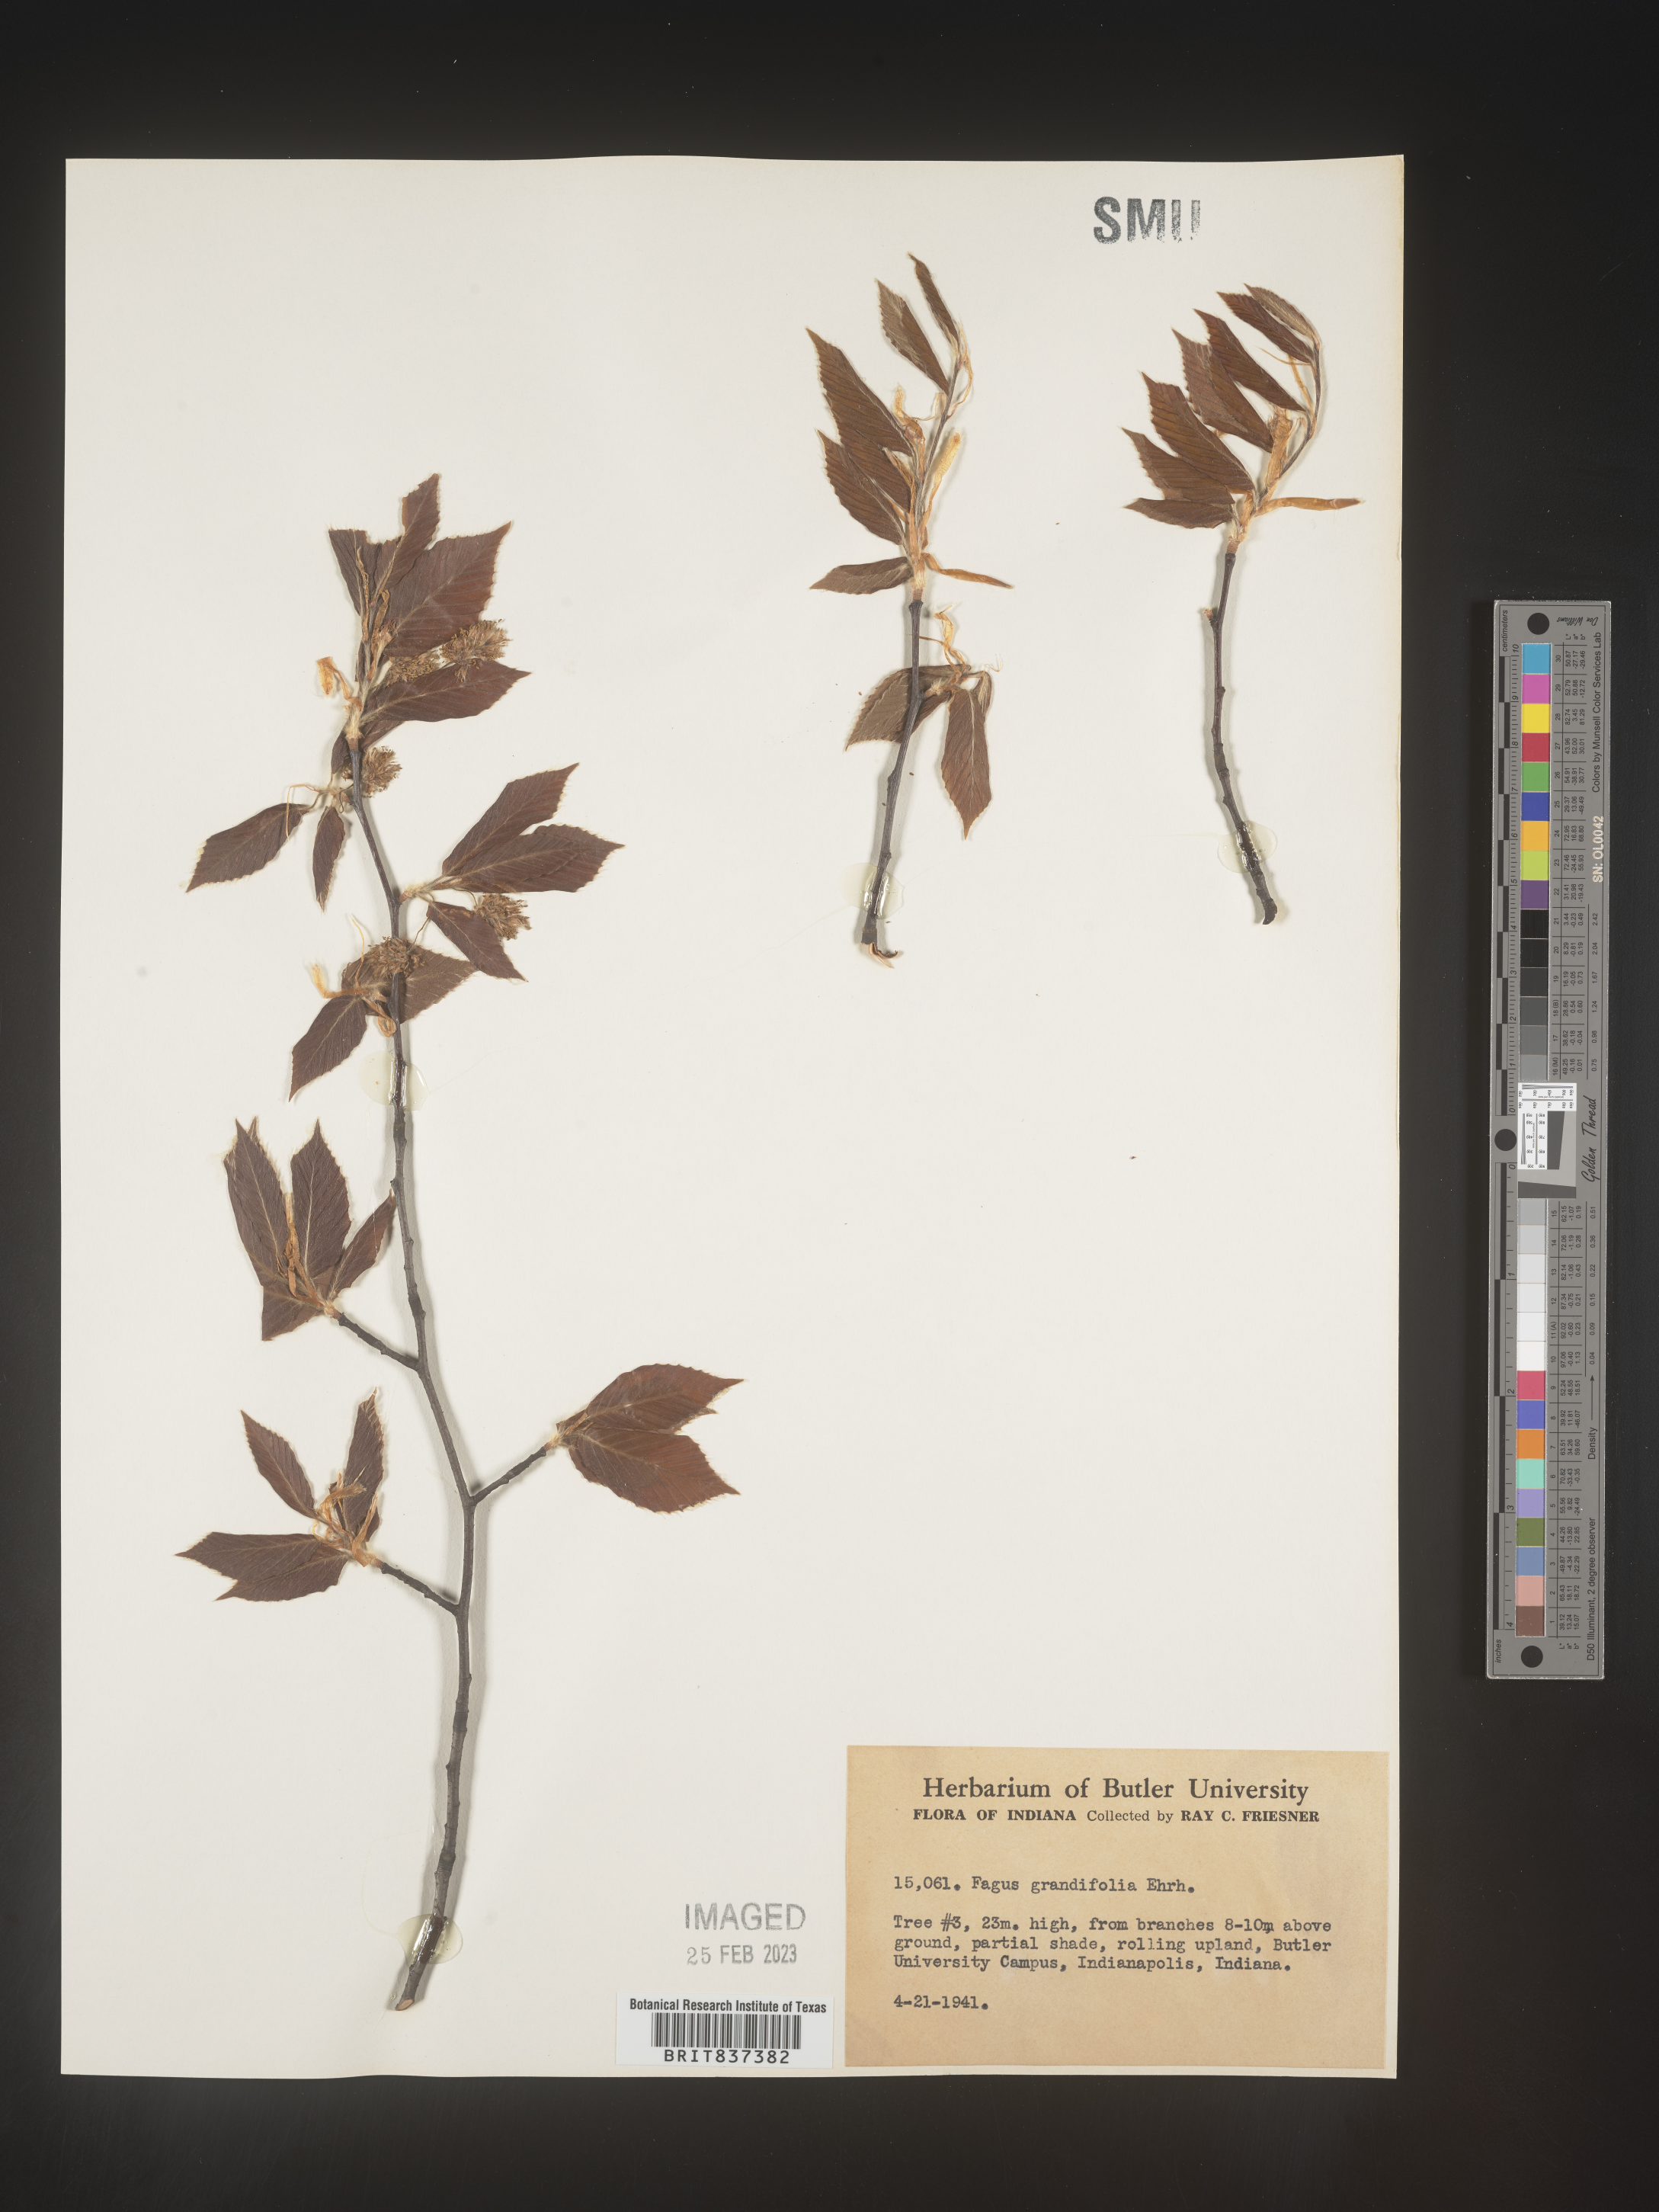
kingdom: Plantae
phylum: Tracheophyta
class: Magnoliopsida
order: Fagales
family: Fagaceae
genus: Fagus
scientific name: Fagus grandifolia
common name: American beech
